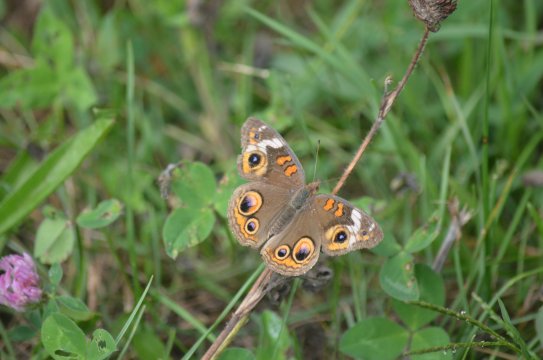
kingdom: Animalia
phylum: Arthropoda
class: Insecta
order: Lepidoptera
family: Nymphalidae
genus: Junonia
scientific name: Junonia coenia
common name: Common Buckeye
